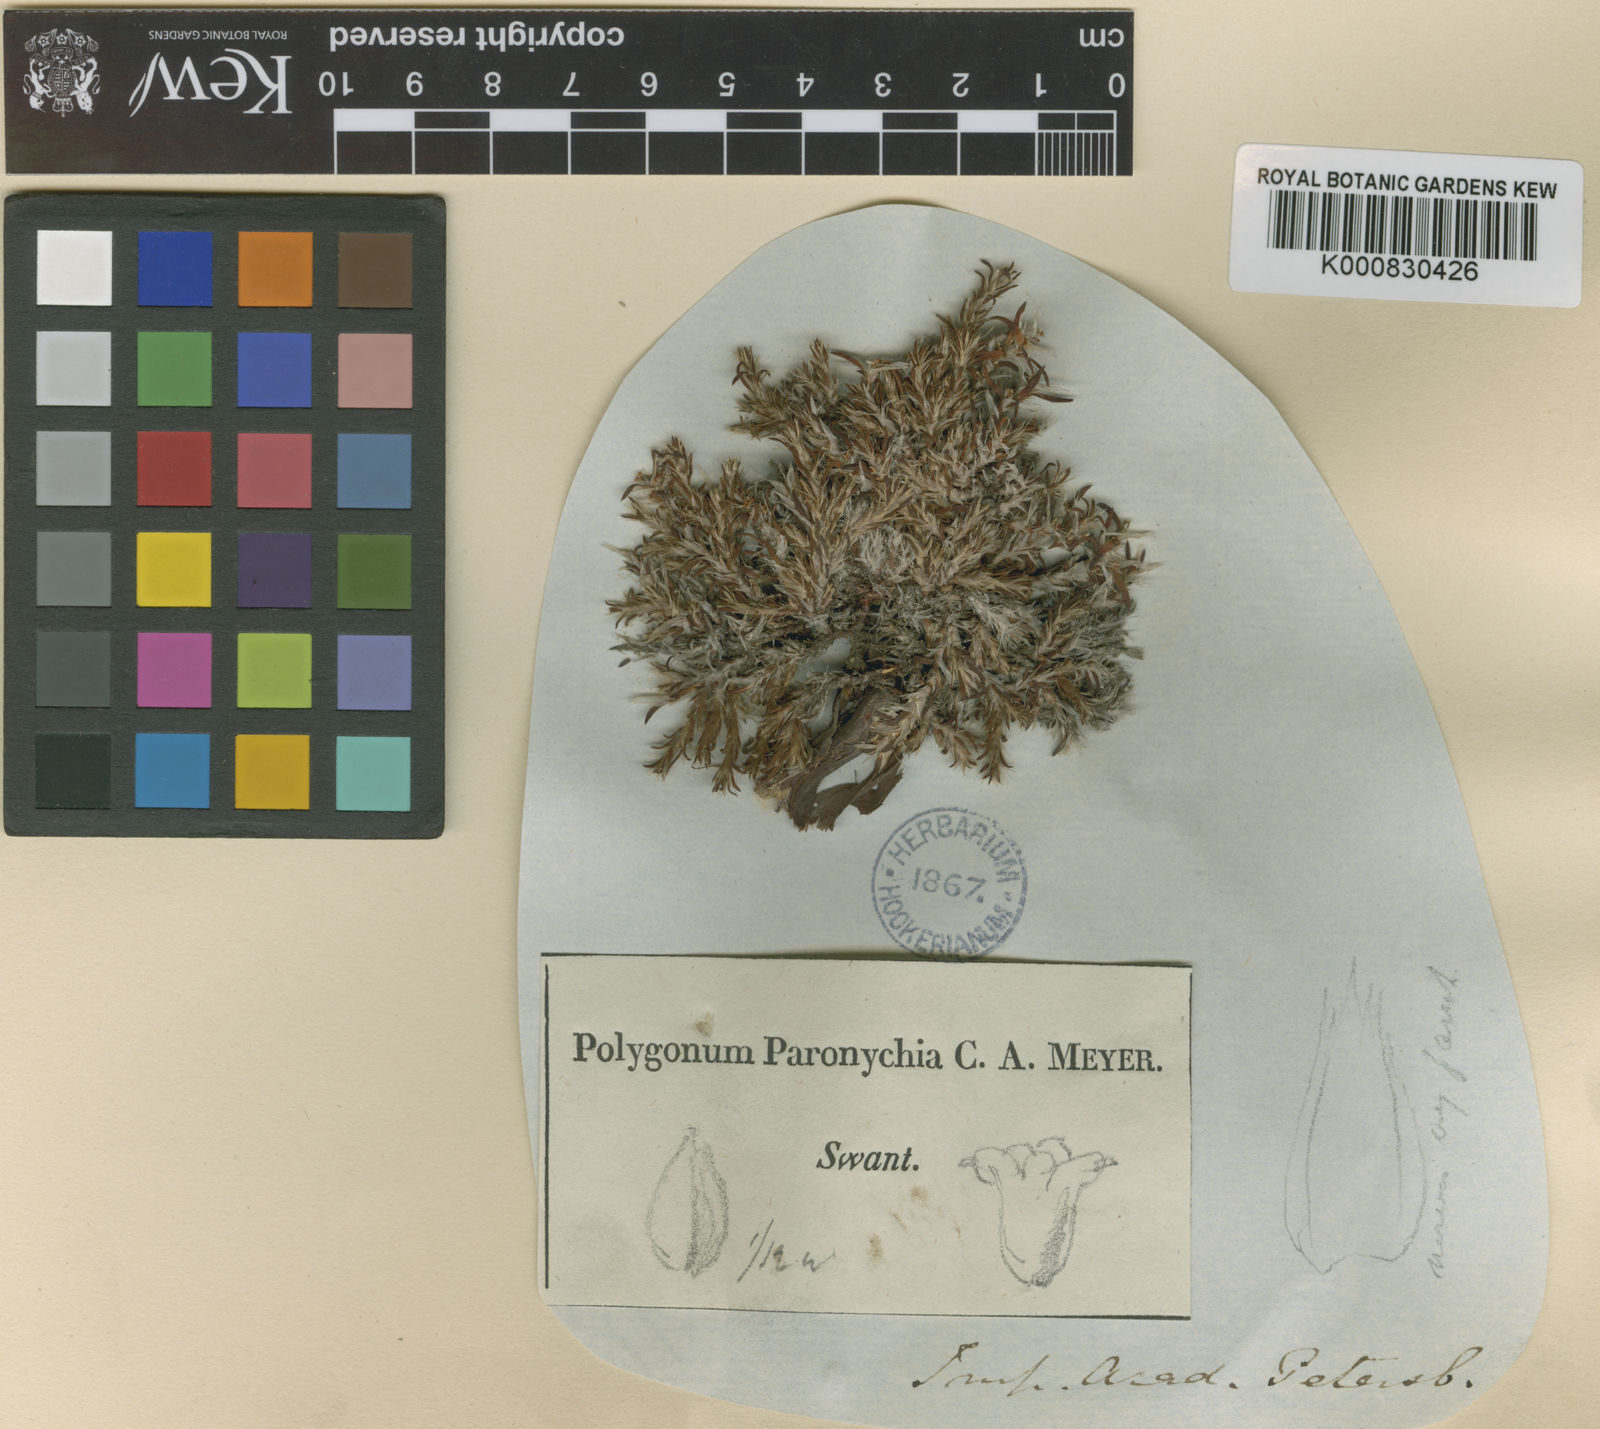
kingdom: Plantae
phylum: Tracheophyta
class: Magnoliopsida
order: Caryophyllales
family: Polygonaceae
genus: Polygonum
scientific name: Polygonum paronychioides
